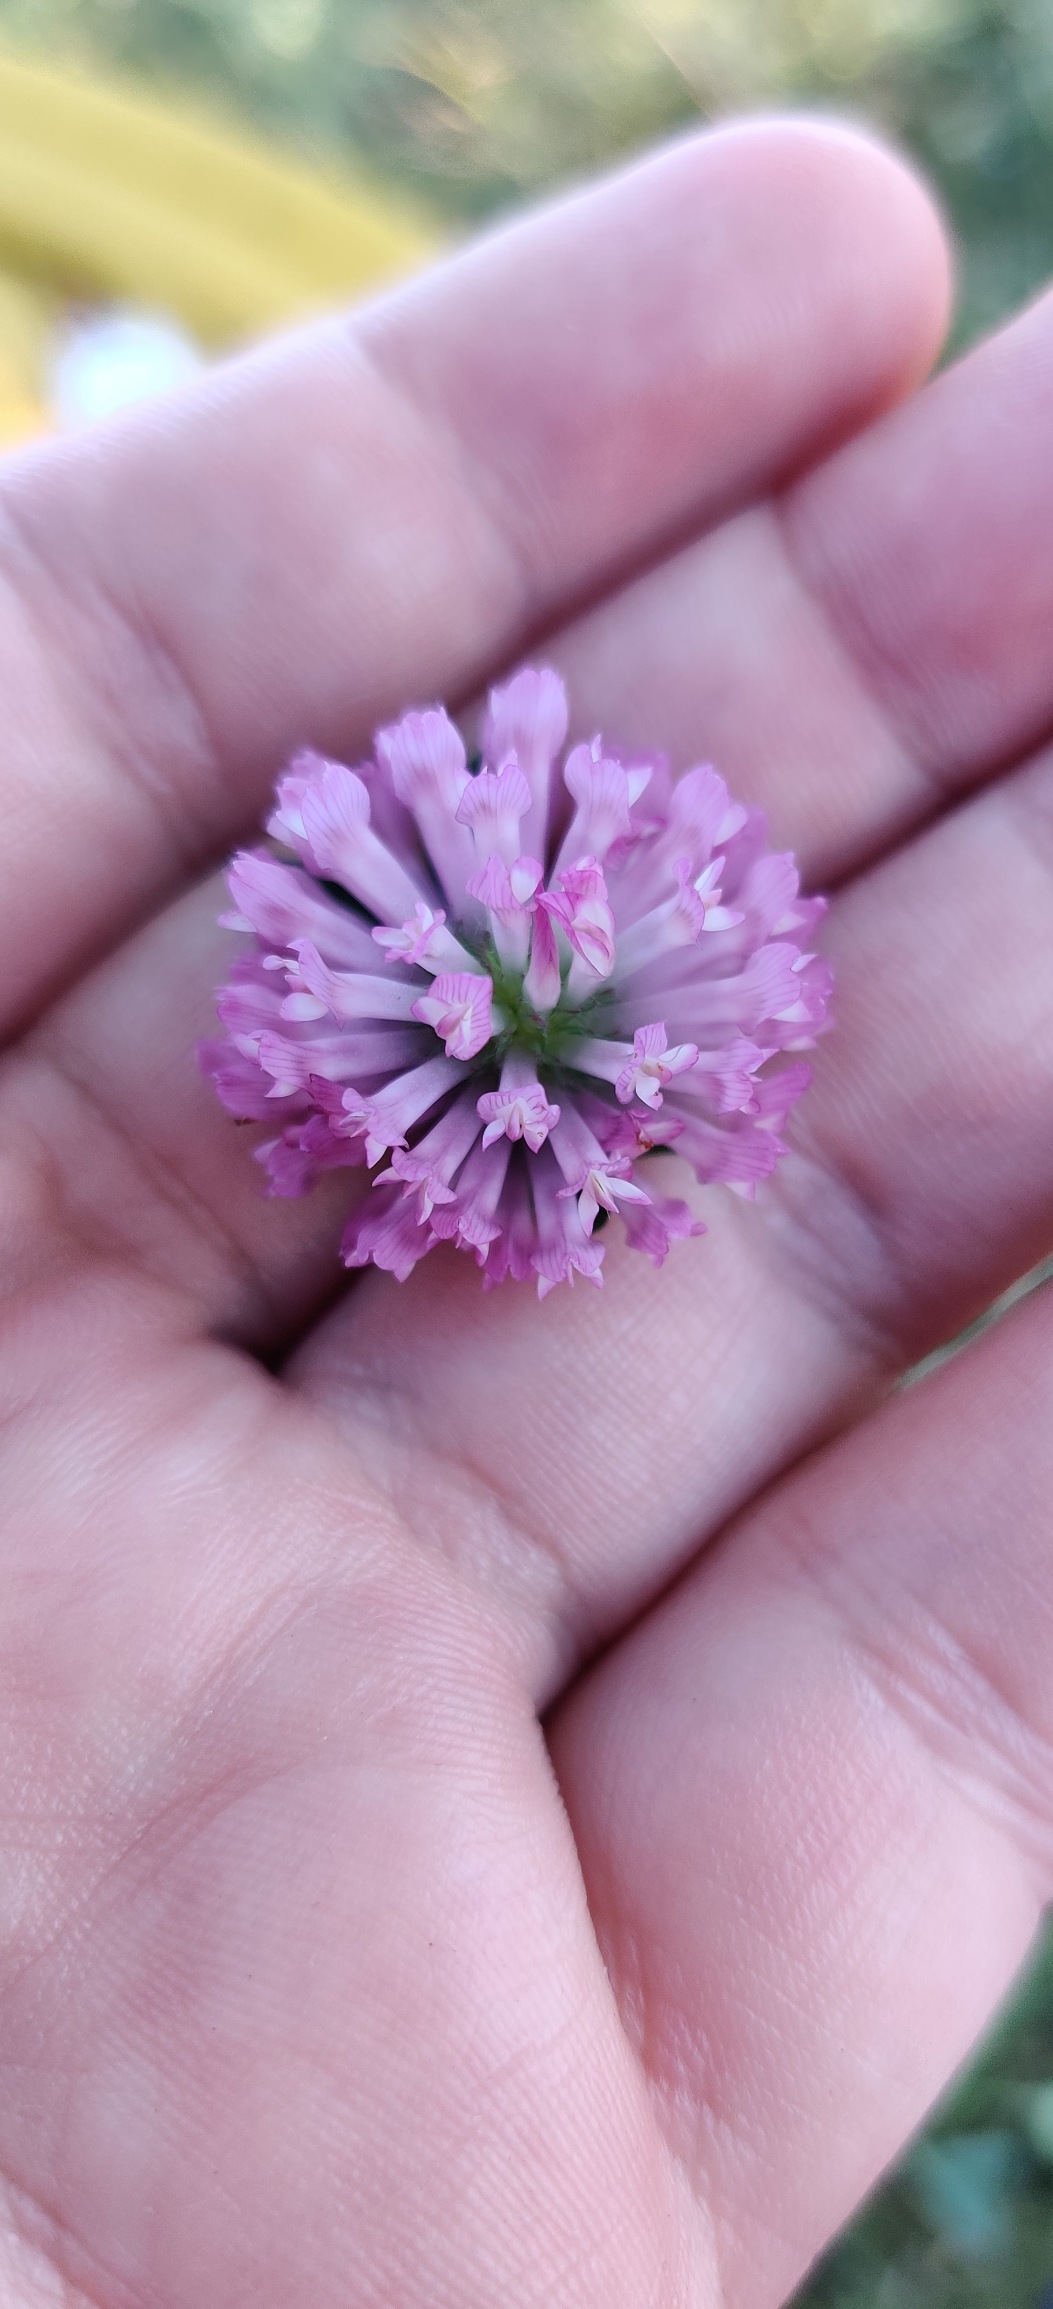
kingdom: Plantae
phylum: Tracheophyta
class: Magnoliopsida
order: Fabales
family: Fabaceae
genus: Trifolium
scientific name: Trifolium pratense
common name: Rød-kløver
